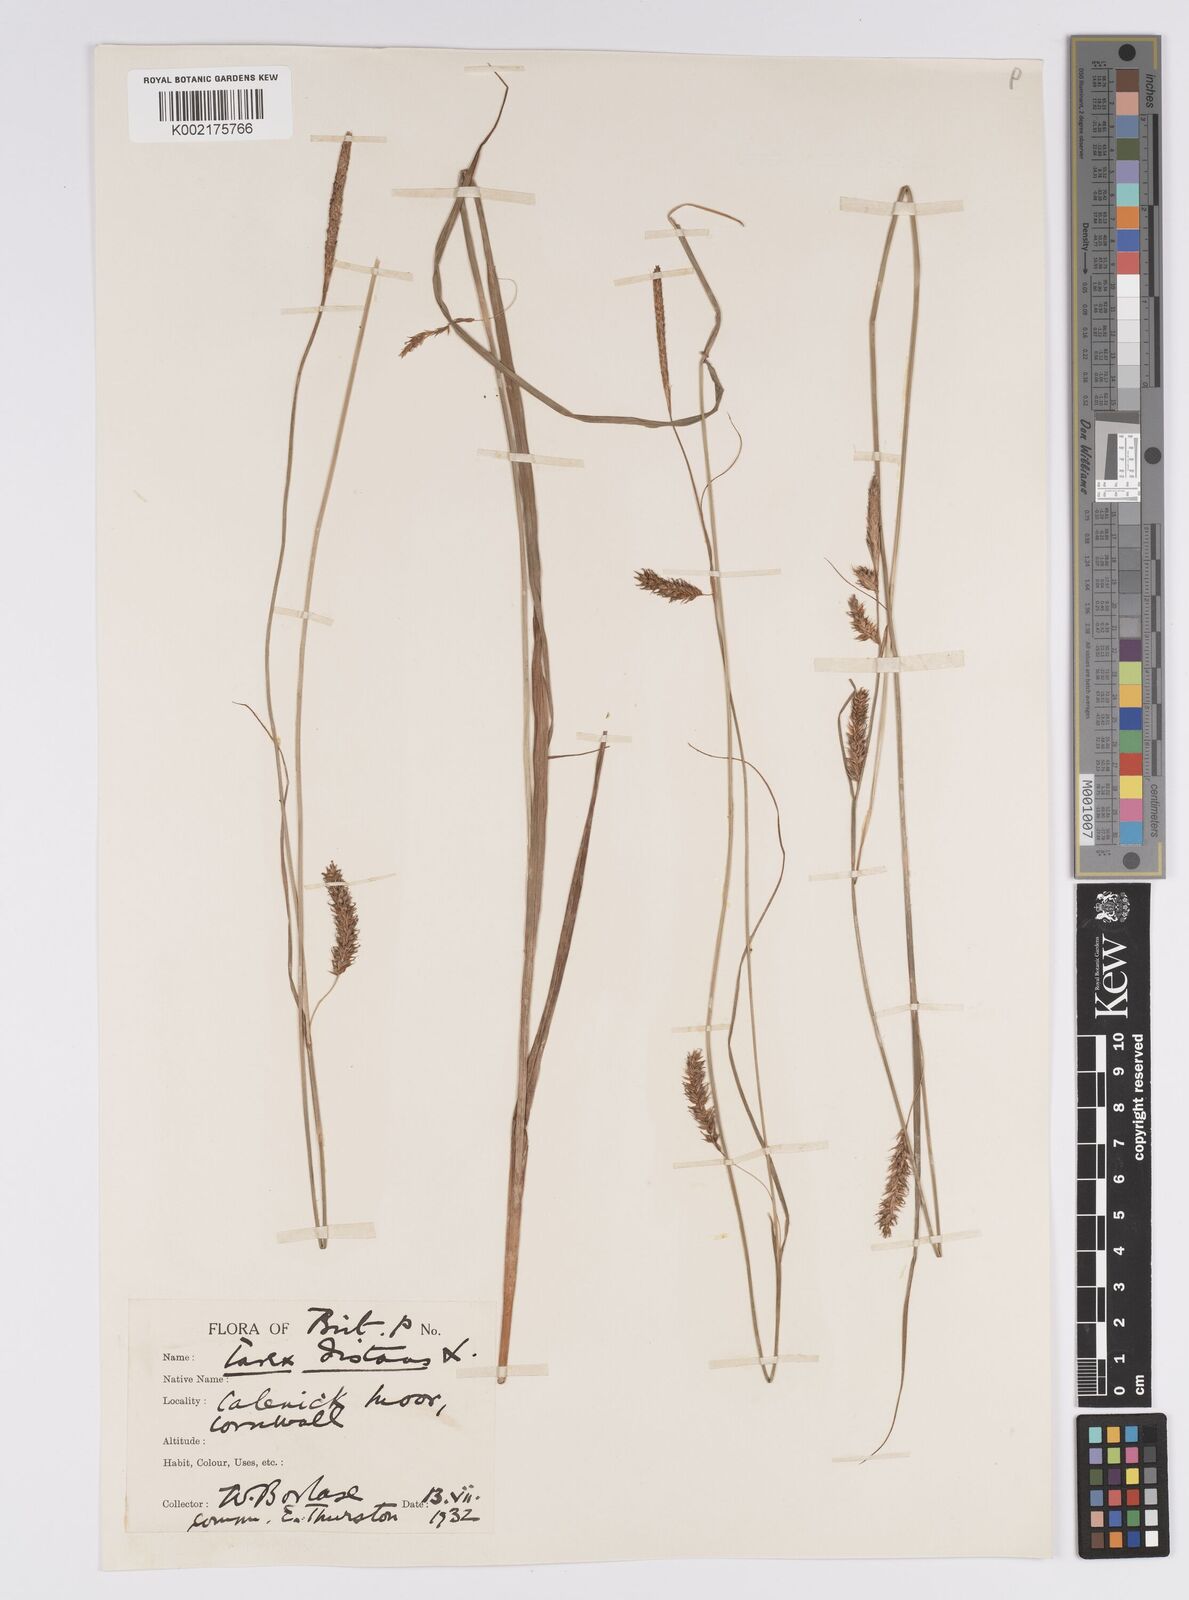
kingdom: Plantae
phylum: Tracheophyta
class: Liliopsida
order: Poales
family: Cyperaceae
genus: Carex
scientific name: Carex laevigata
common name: Smooth-stalked sedge
